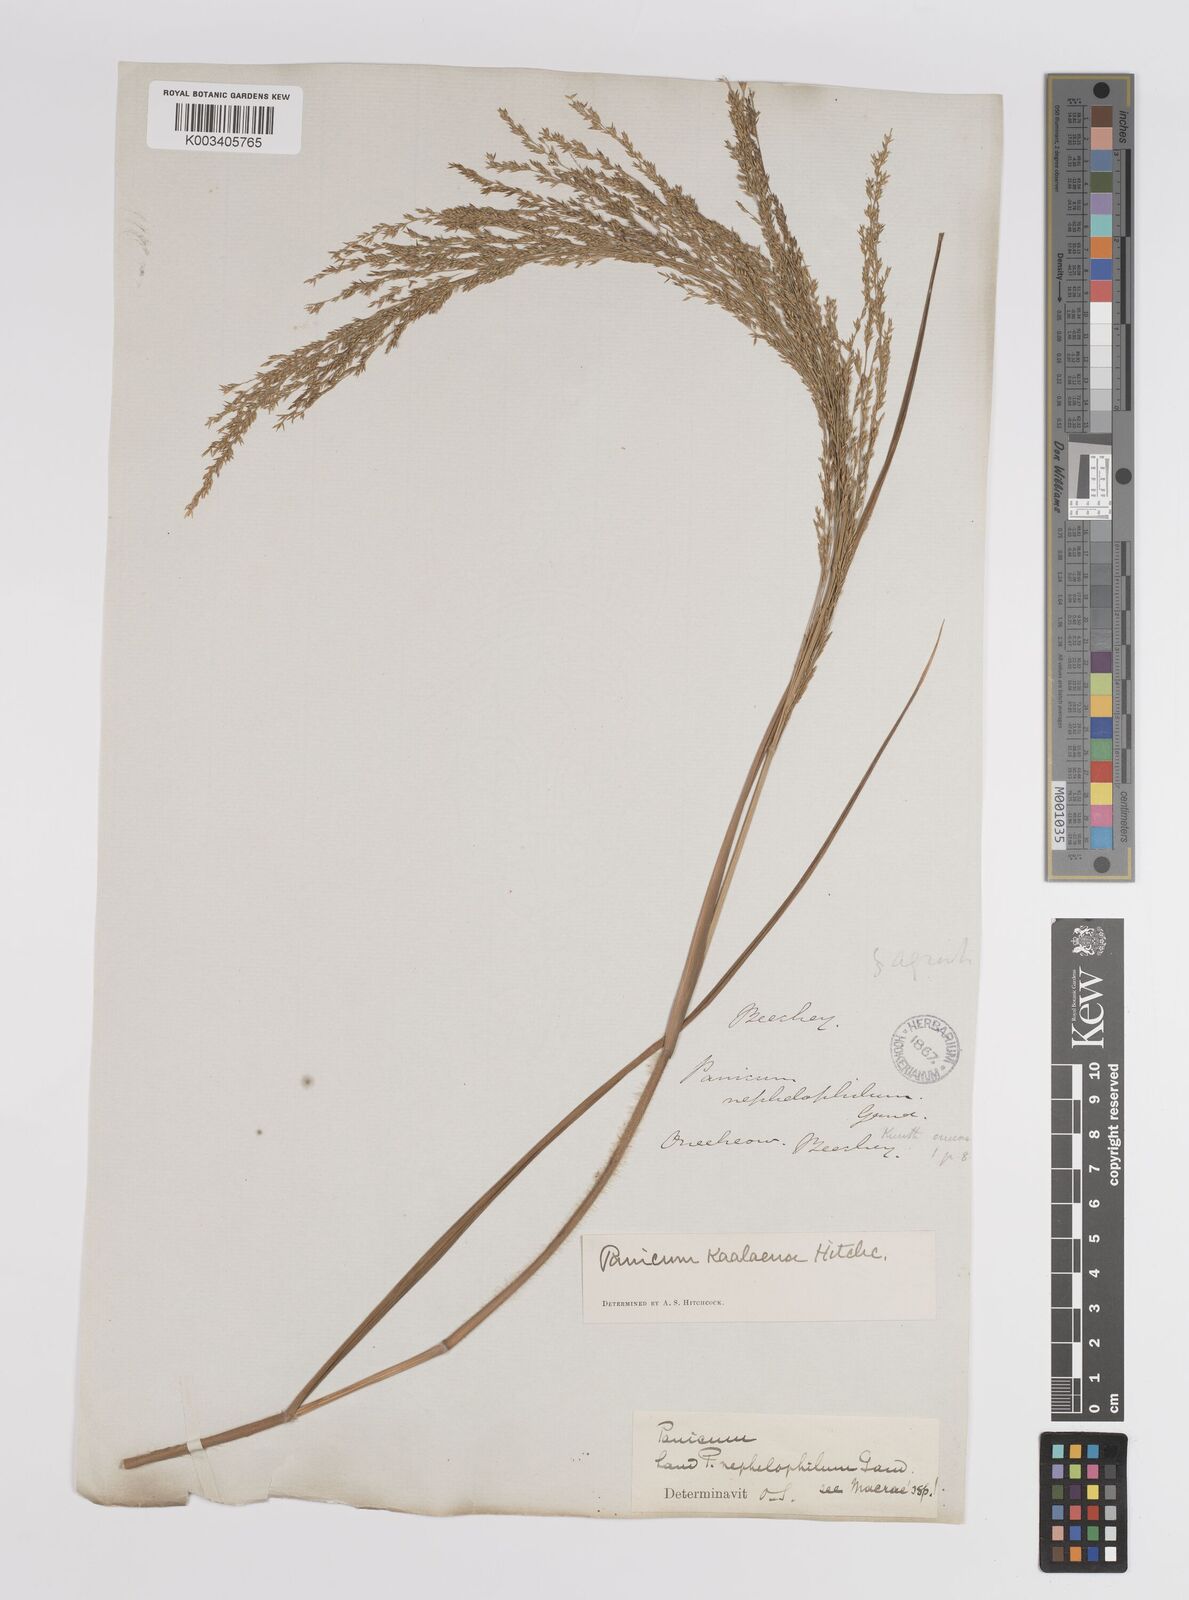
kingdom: Plantae
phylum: Tracheophyta
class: Liliopsida
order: Poales
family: Poaceae
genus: Panicum
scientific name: Panicum niihauense
